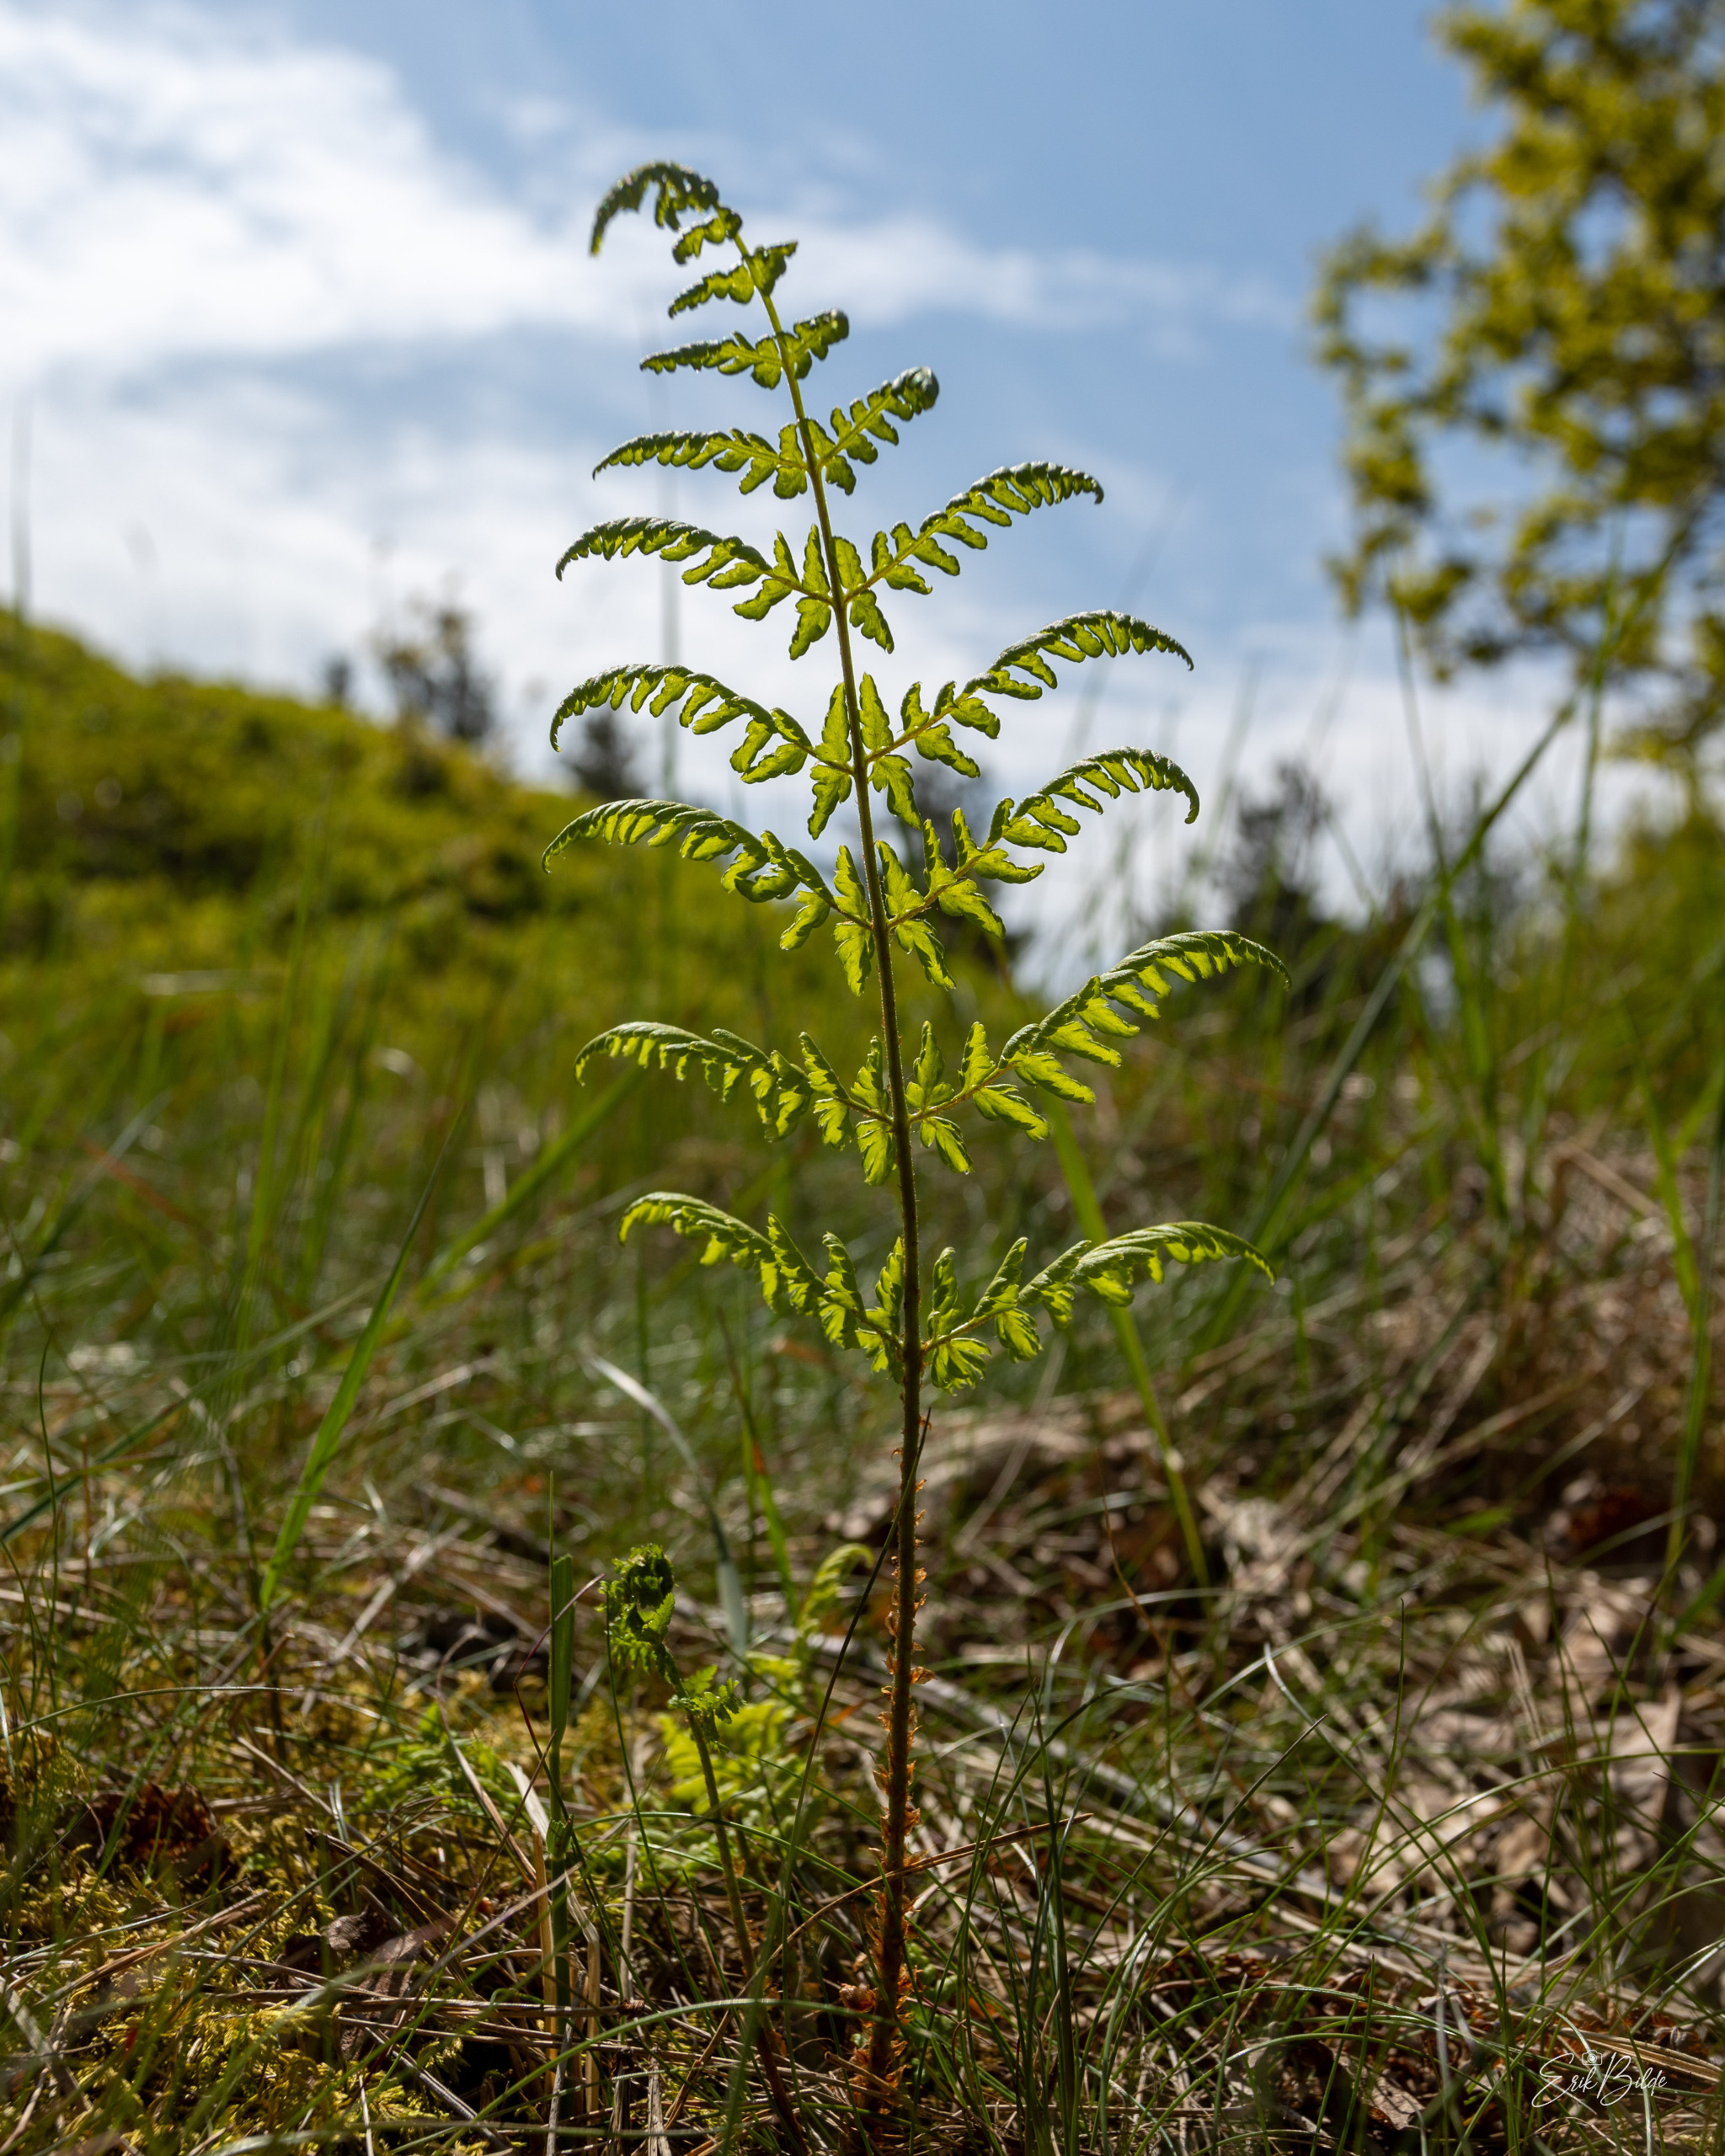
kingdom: Plantae
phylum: Tracheophyta
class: Polypodiopsida
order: Polypodiales
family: Dryopteridaceae
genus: Dryopteris
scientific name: Dryopteris dilatata
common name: Bredbladet mangeløv
